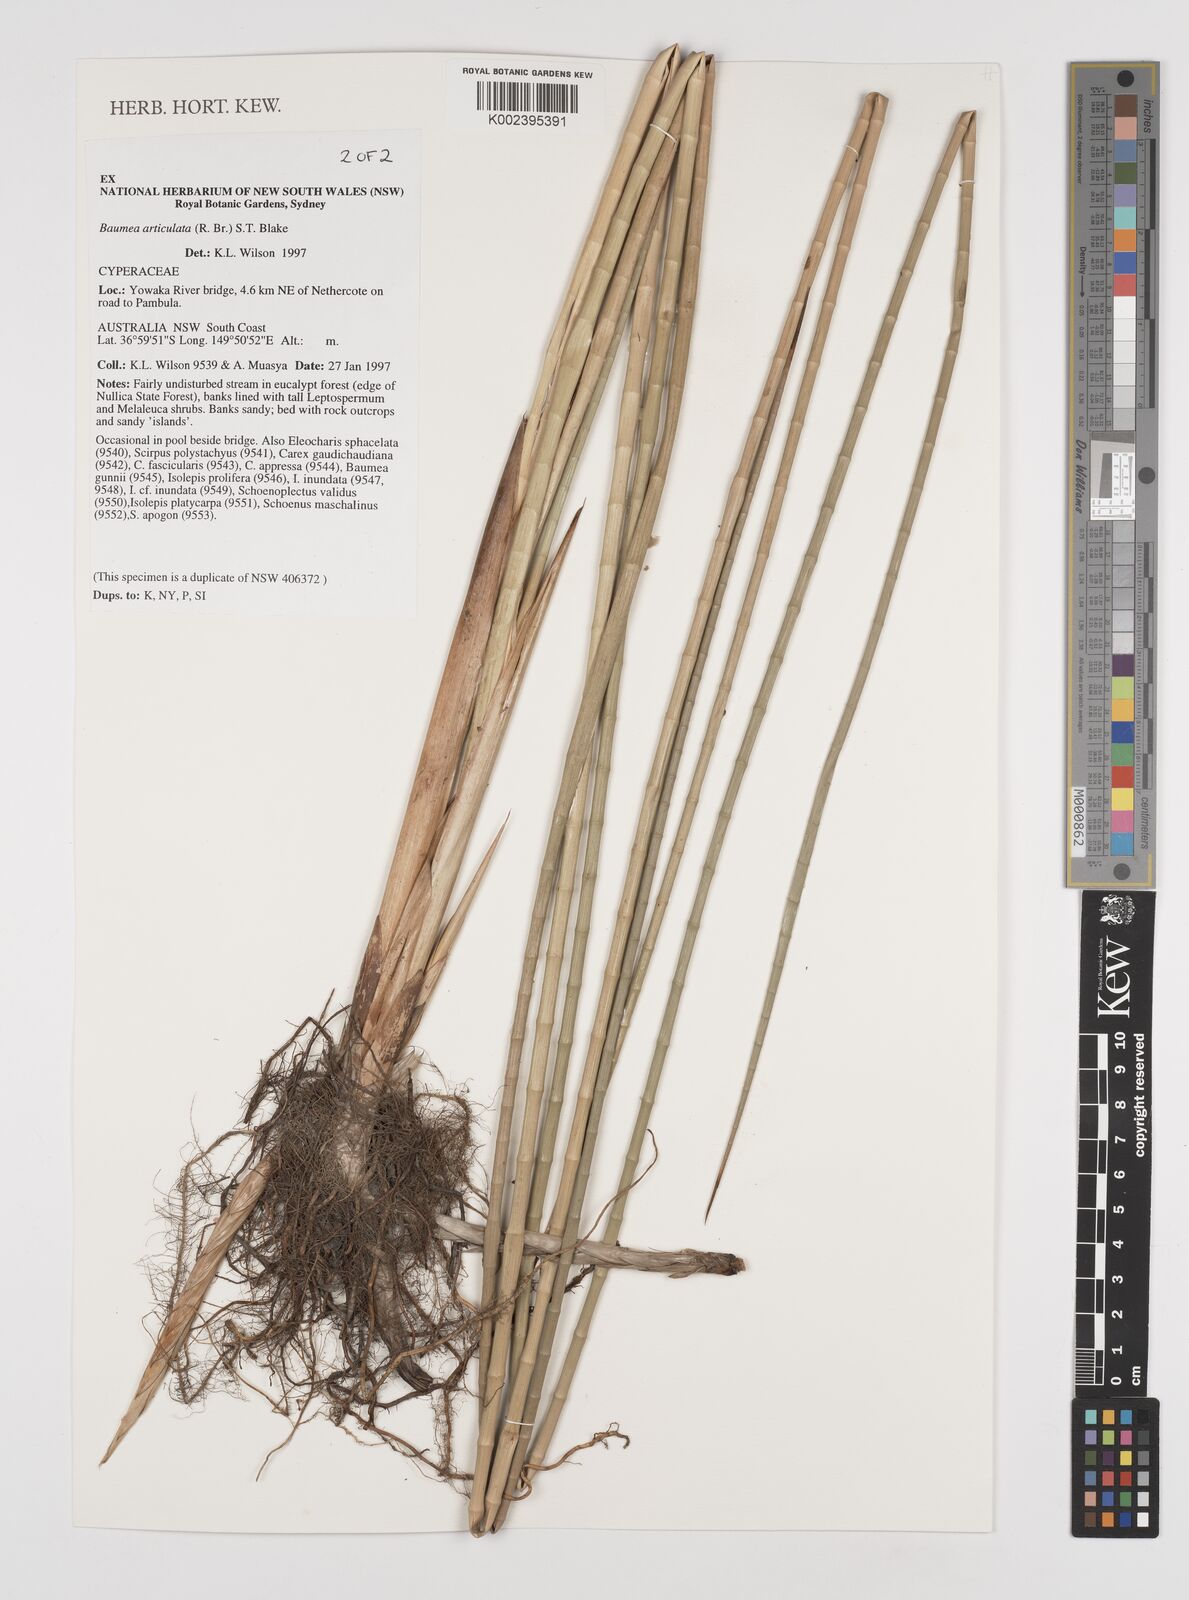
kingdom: Plantae
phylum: Tracheophyta
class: Liliopsida
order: Poales
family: Cyperaceae
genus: Machaerina
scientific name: Machaerina articulata
